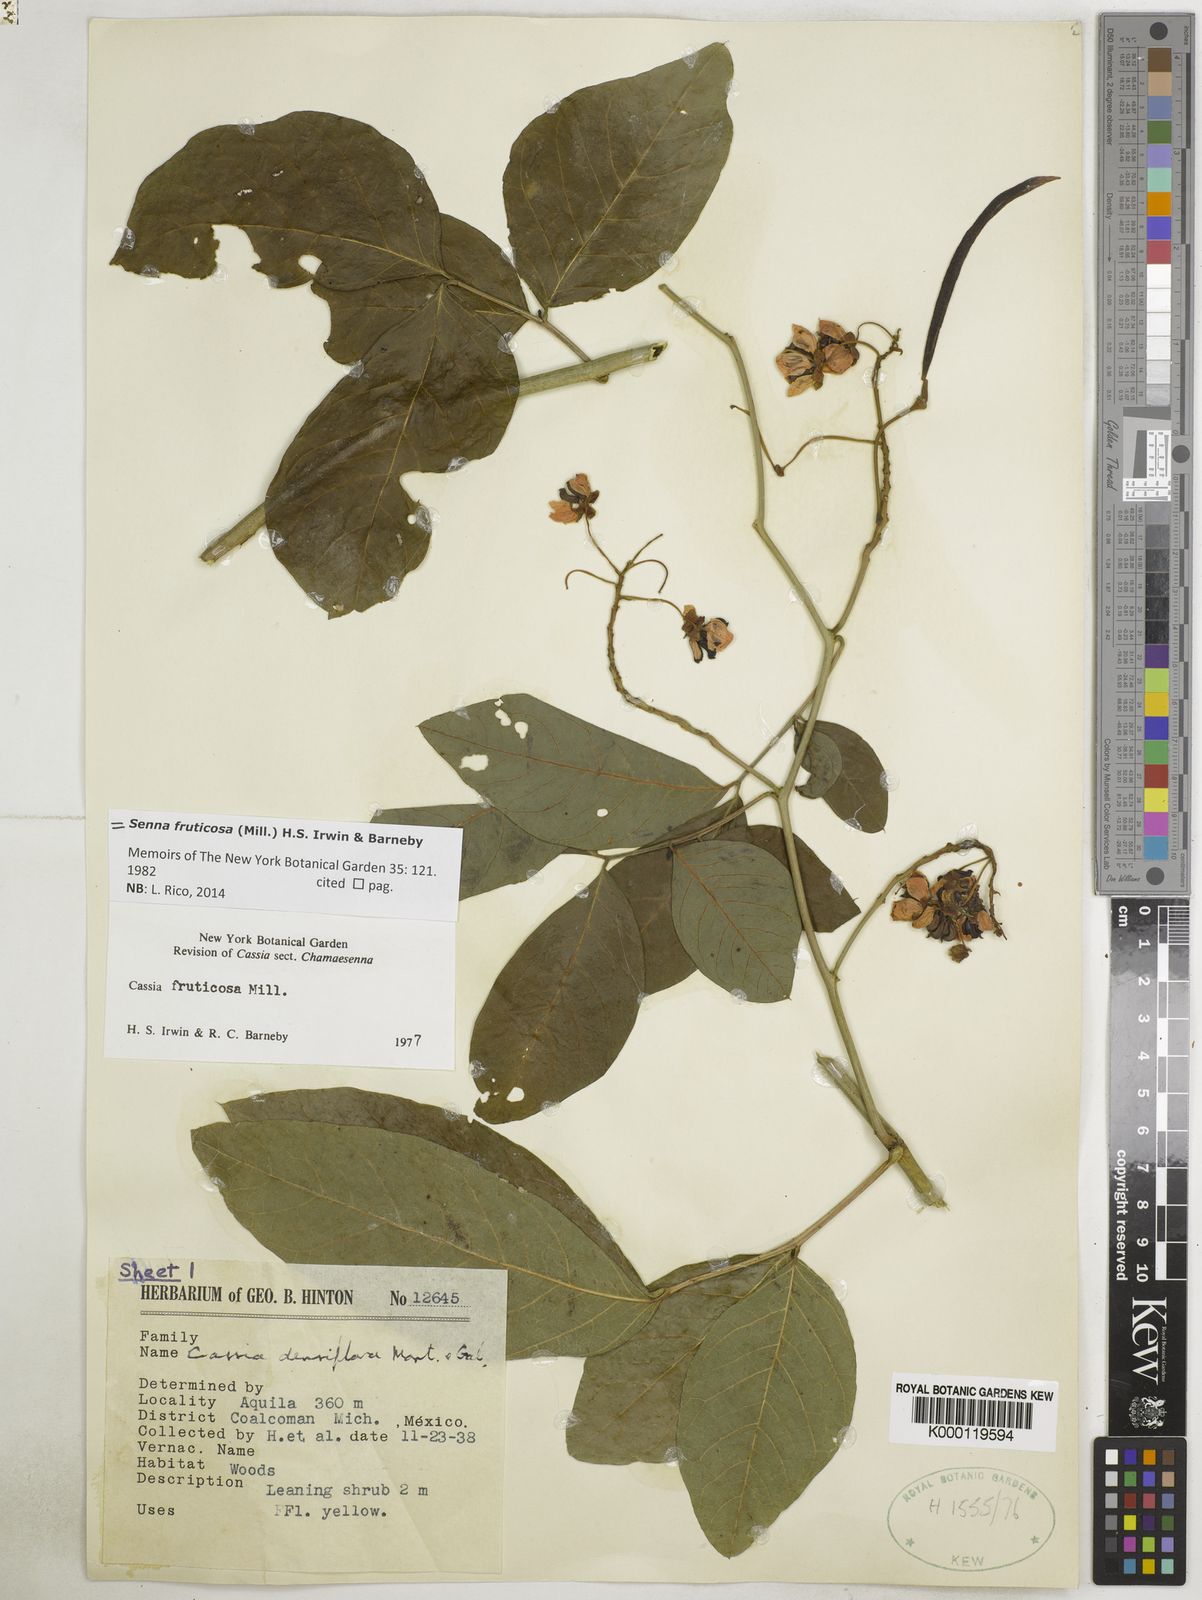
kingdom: Plantae
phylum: Tracheophyta
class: Magnoliopsida
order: Fabales
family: Fabaceae
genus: Senna
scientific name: Senna fruticosa
